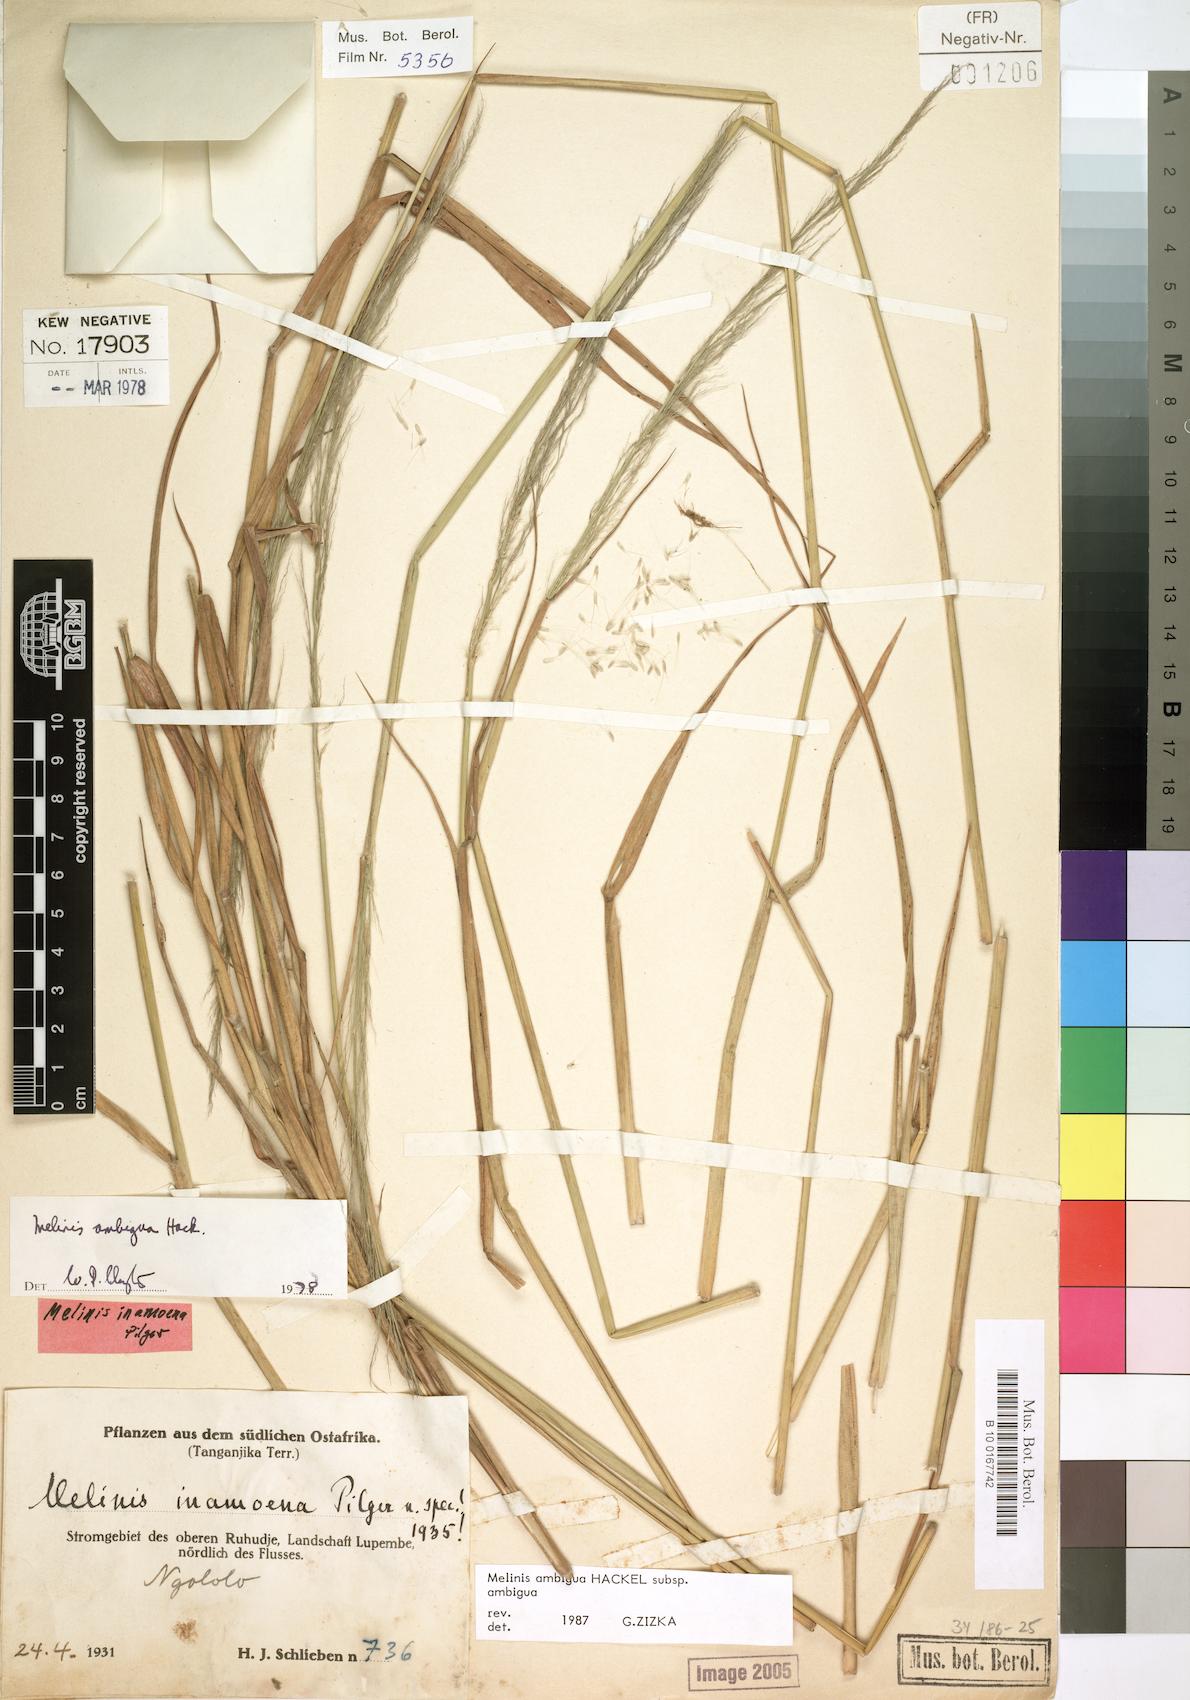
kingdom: Plantae
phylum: Tracheophyta
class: Liliopsida
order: Poales
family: Poaceae
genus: Melinis
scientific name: Melinis ambigua
